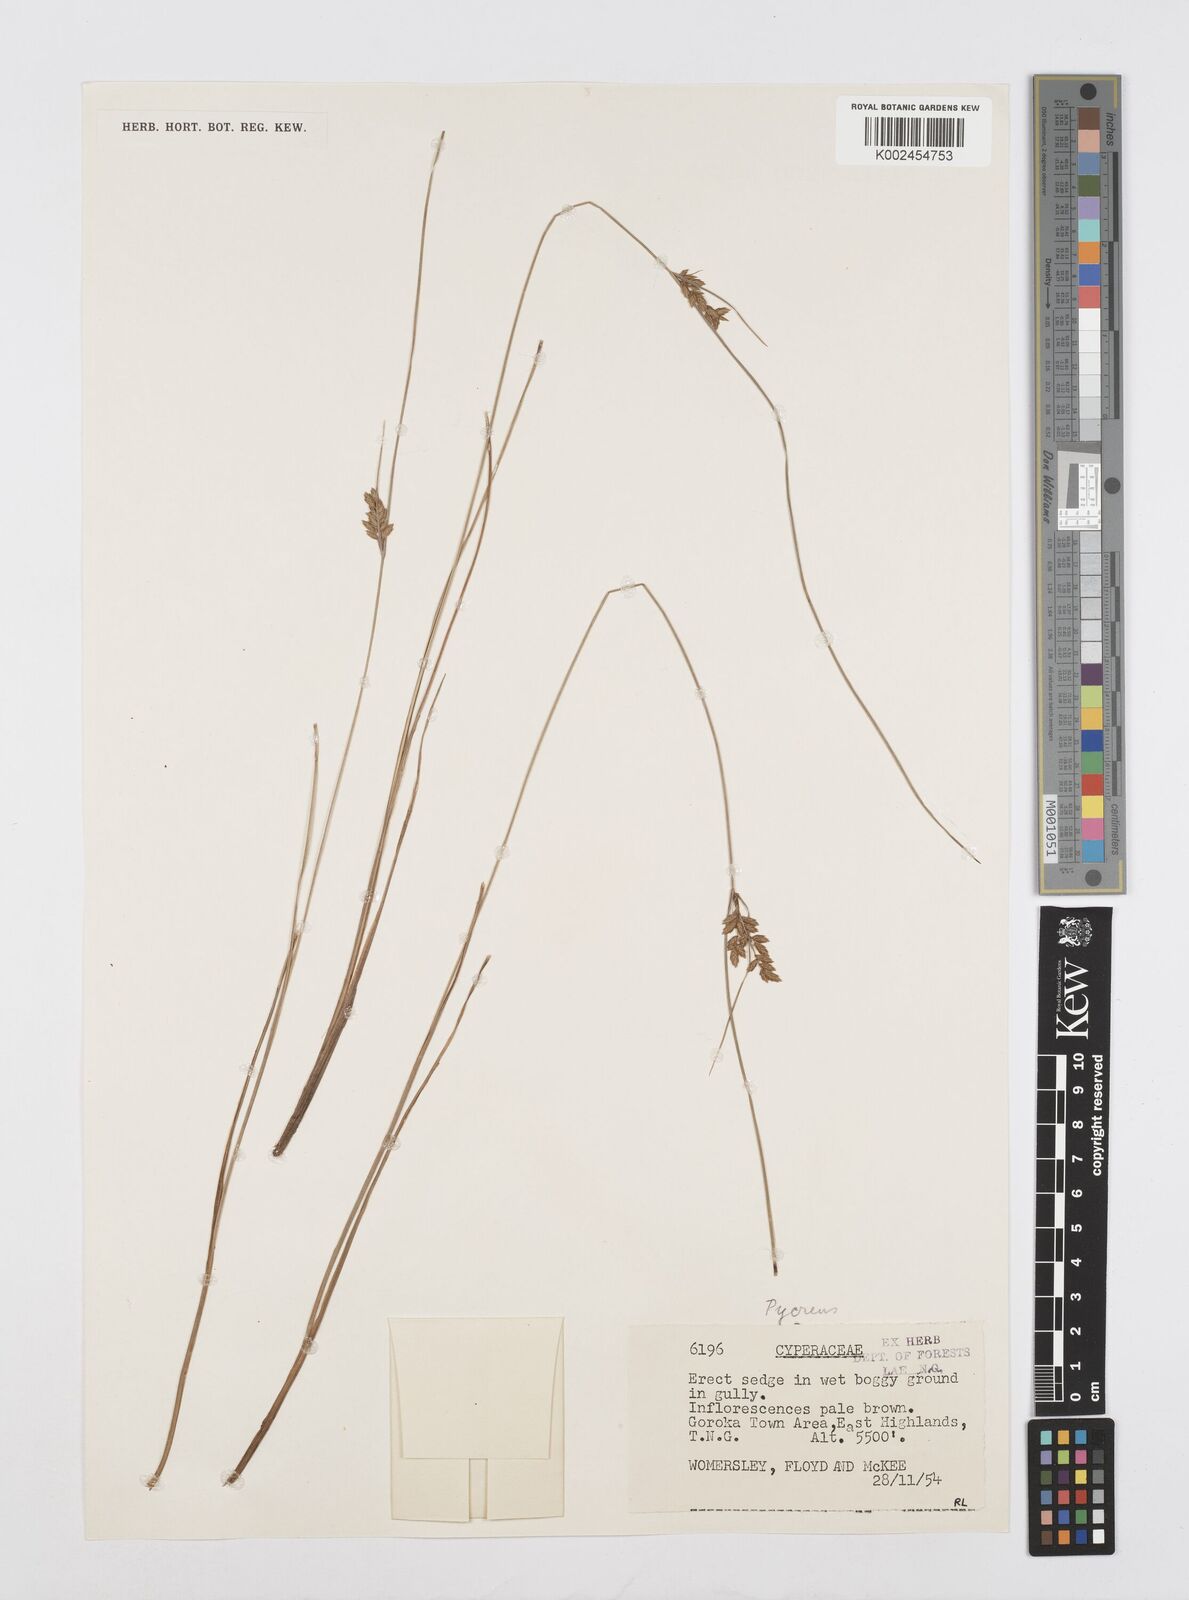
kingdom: Plantae
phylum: Tracheophyta
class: Liliopsida
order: Poales
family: Cyperaceae
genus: Cyperus
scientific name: Cyperus unioloides
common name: Uniola flatsedge
